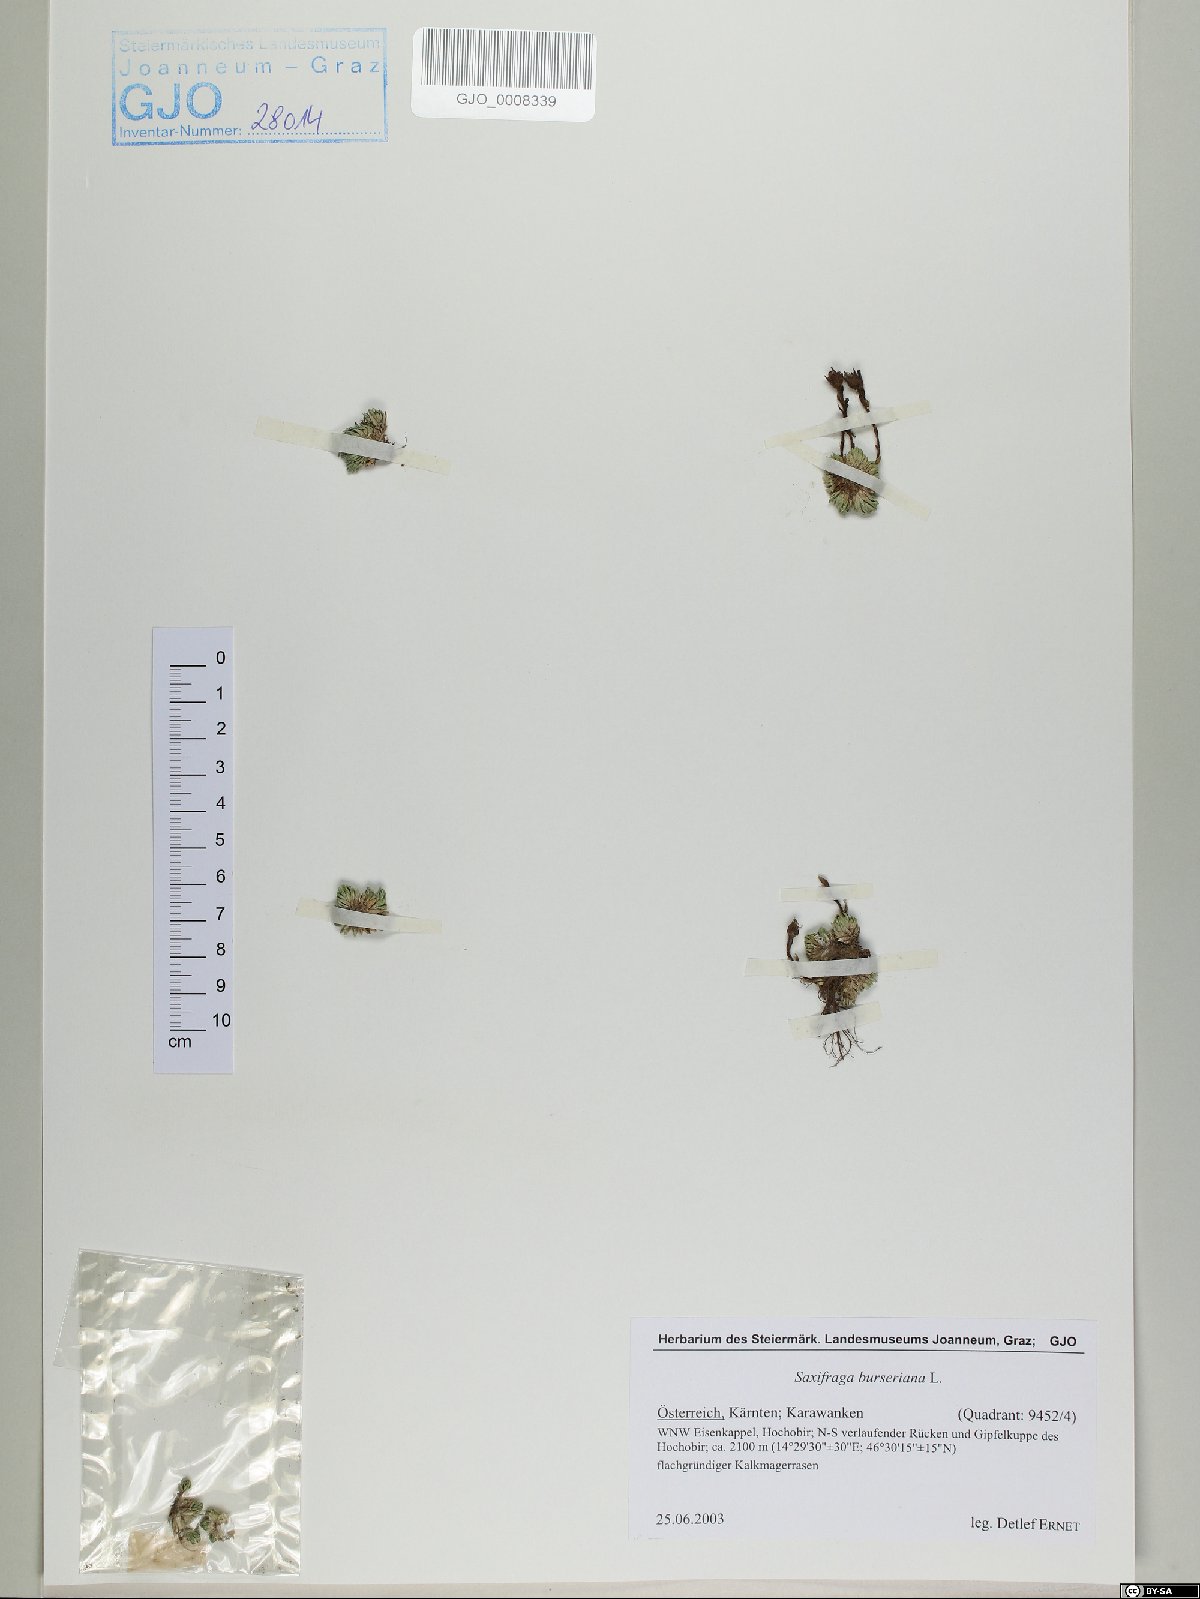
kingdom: Plantae
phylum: Tracheophyta
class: Magnoliopsida
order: Saxifragales
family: Saxifragaceae
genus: Saxifraga
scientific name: Saxifraga burseriana
